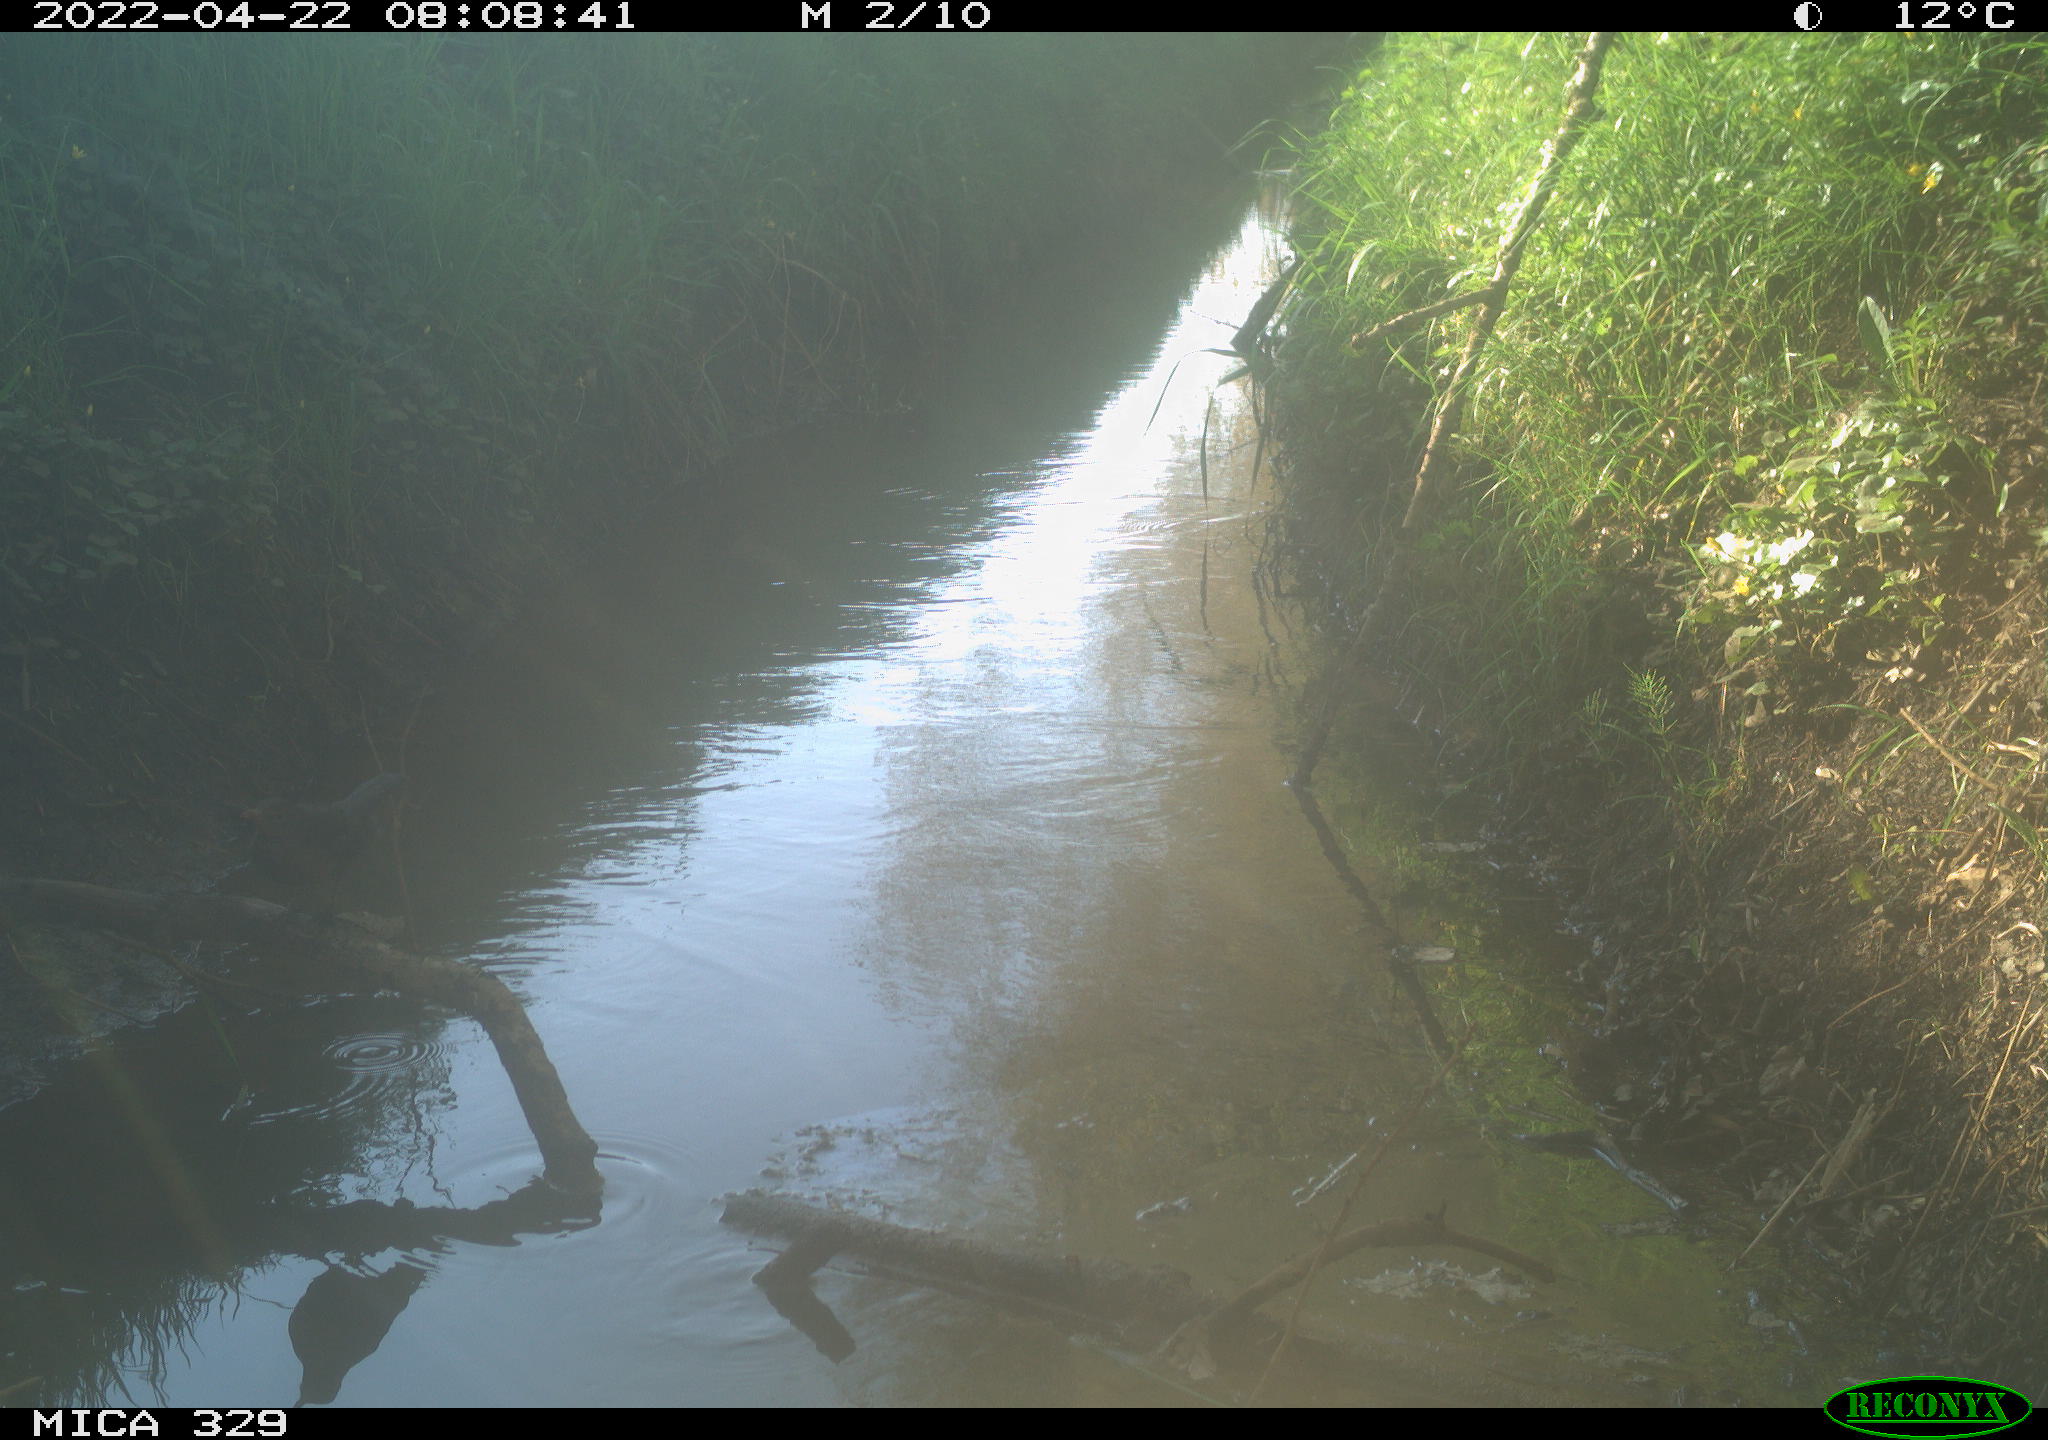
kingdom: Animalia
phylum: Chordata
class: Aves
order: Passeriformes
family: Turdidae
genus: Turdus
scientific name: Turdus merula
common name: Common blackbird
